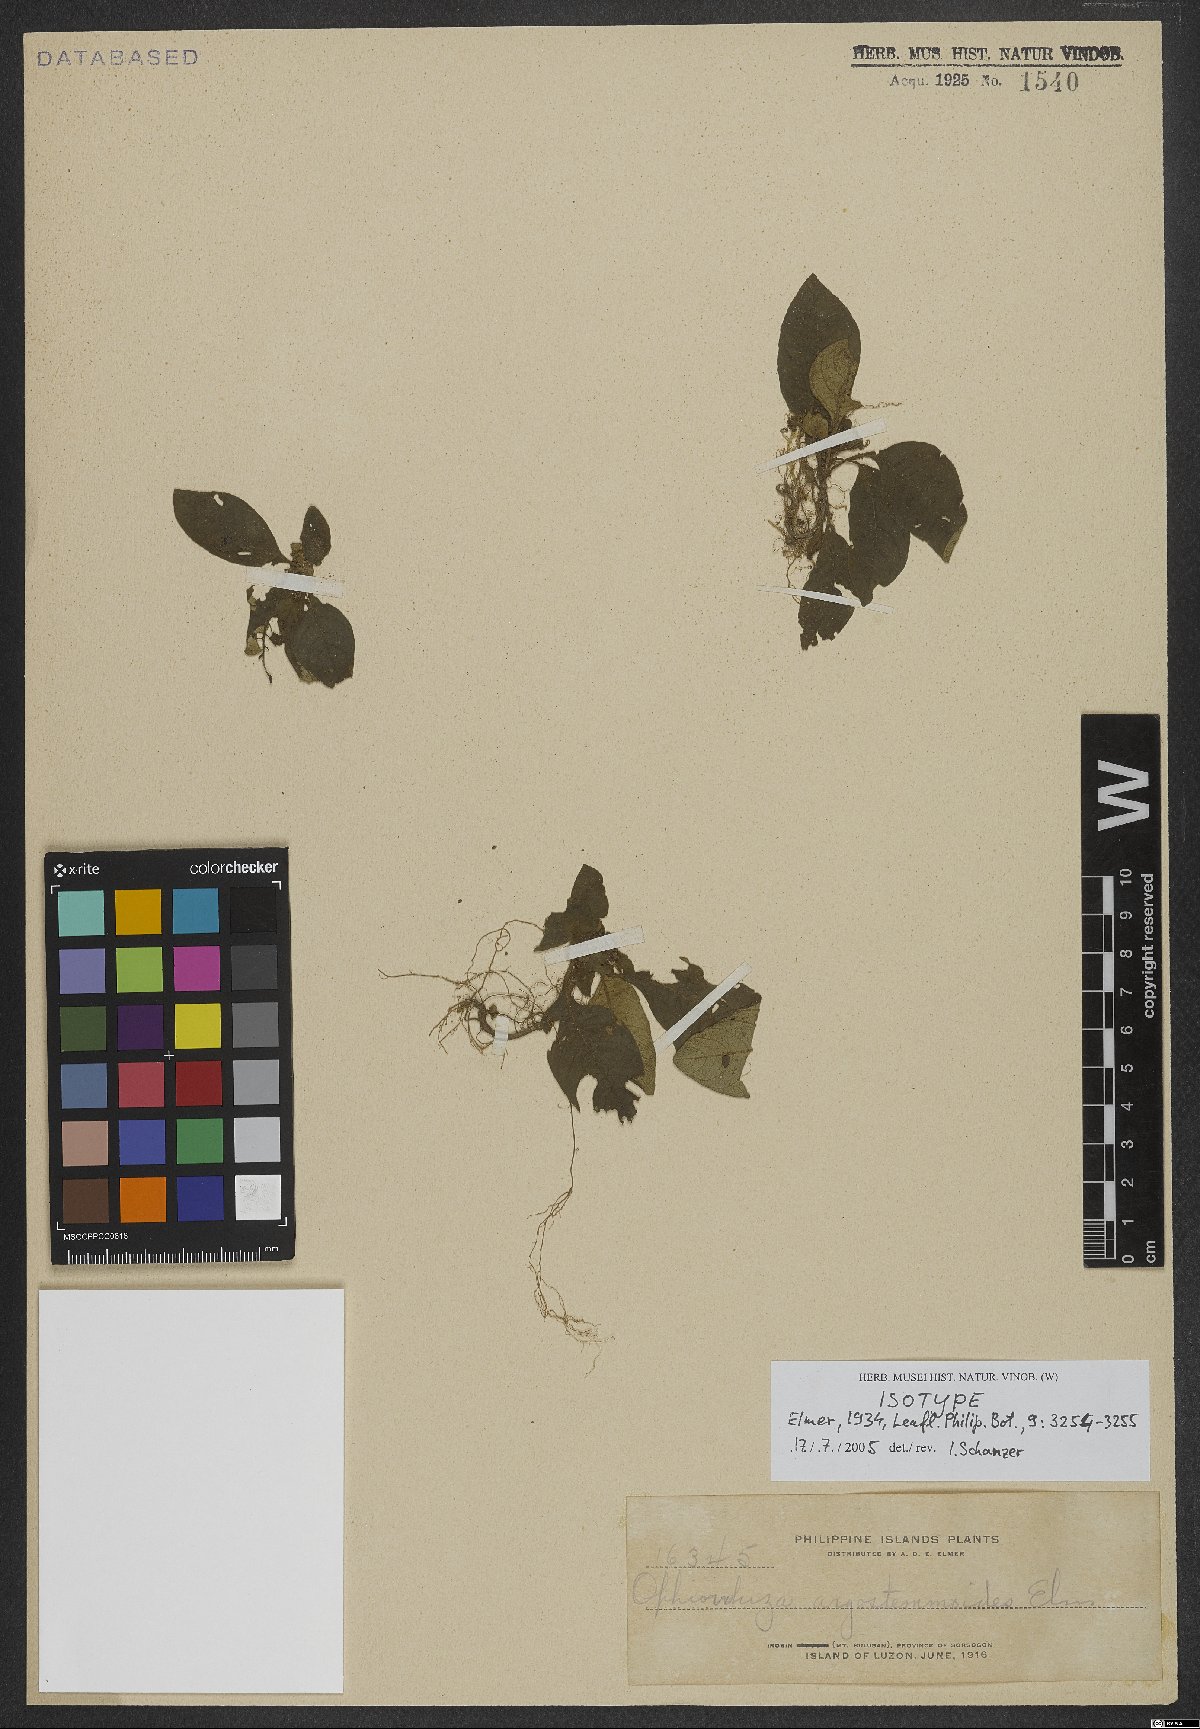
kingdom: Plantae
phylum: Tracheophyta
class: Magnoliopsida
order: Gentianales
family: Rubiaceae
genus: Ophiorrhiza
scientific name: Ophiorrhiza argostemmoides
